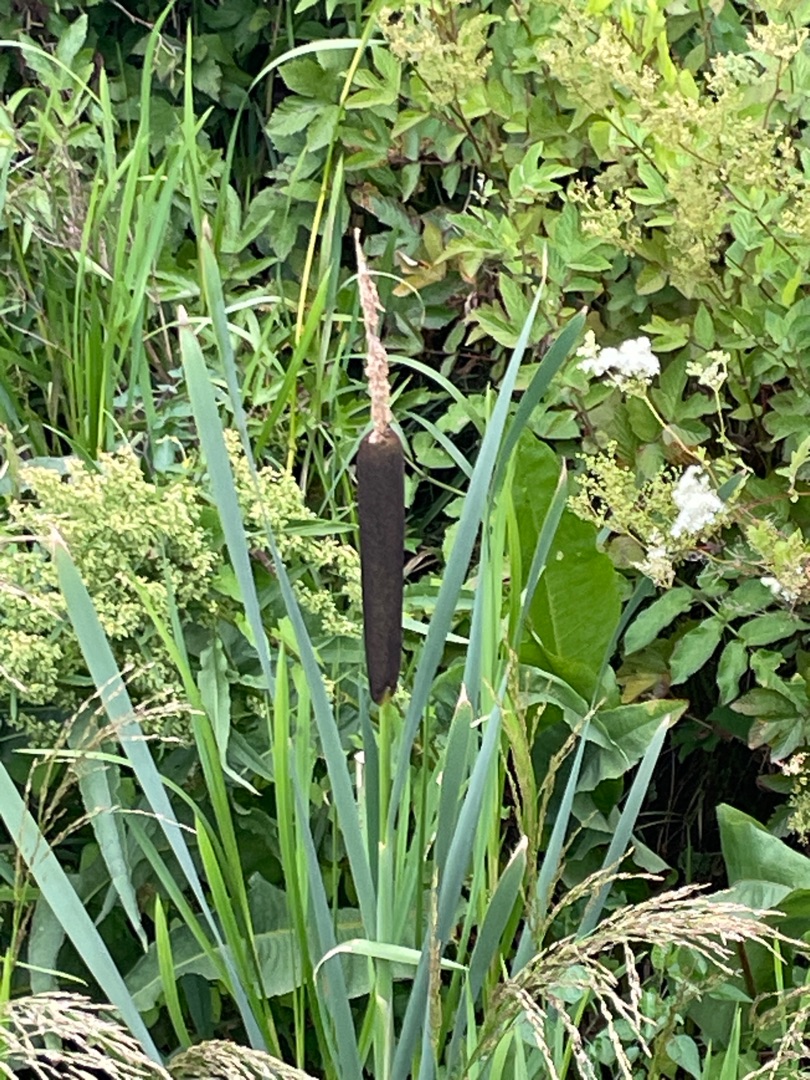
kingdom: Plantae
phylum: Tracheophyta
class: Liliopsida
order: Poales
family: Typhaceae
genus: Typha
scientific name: Typha latifolia
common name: Bredbladet dunhammer
